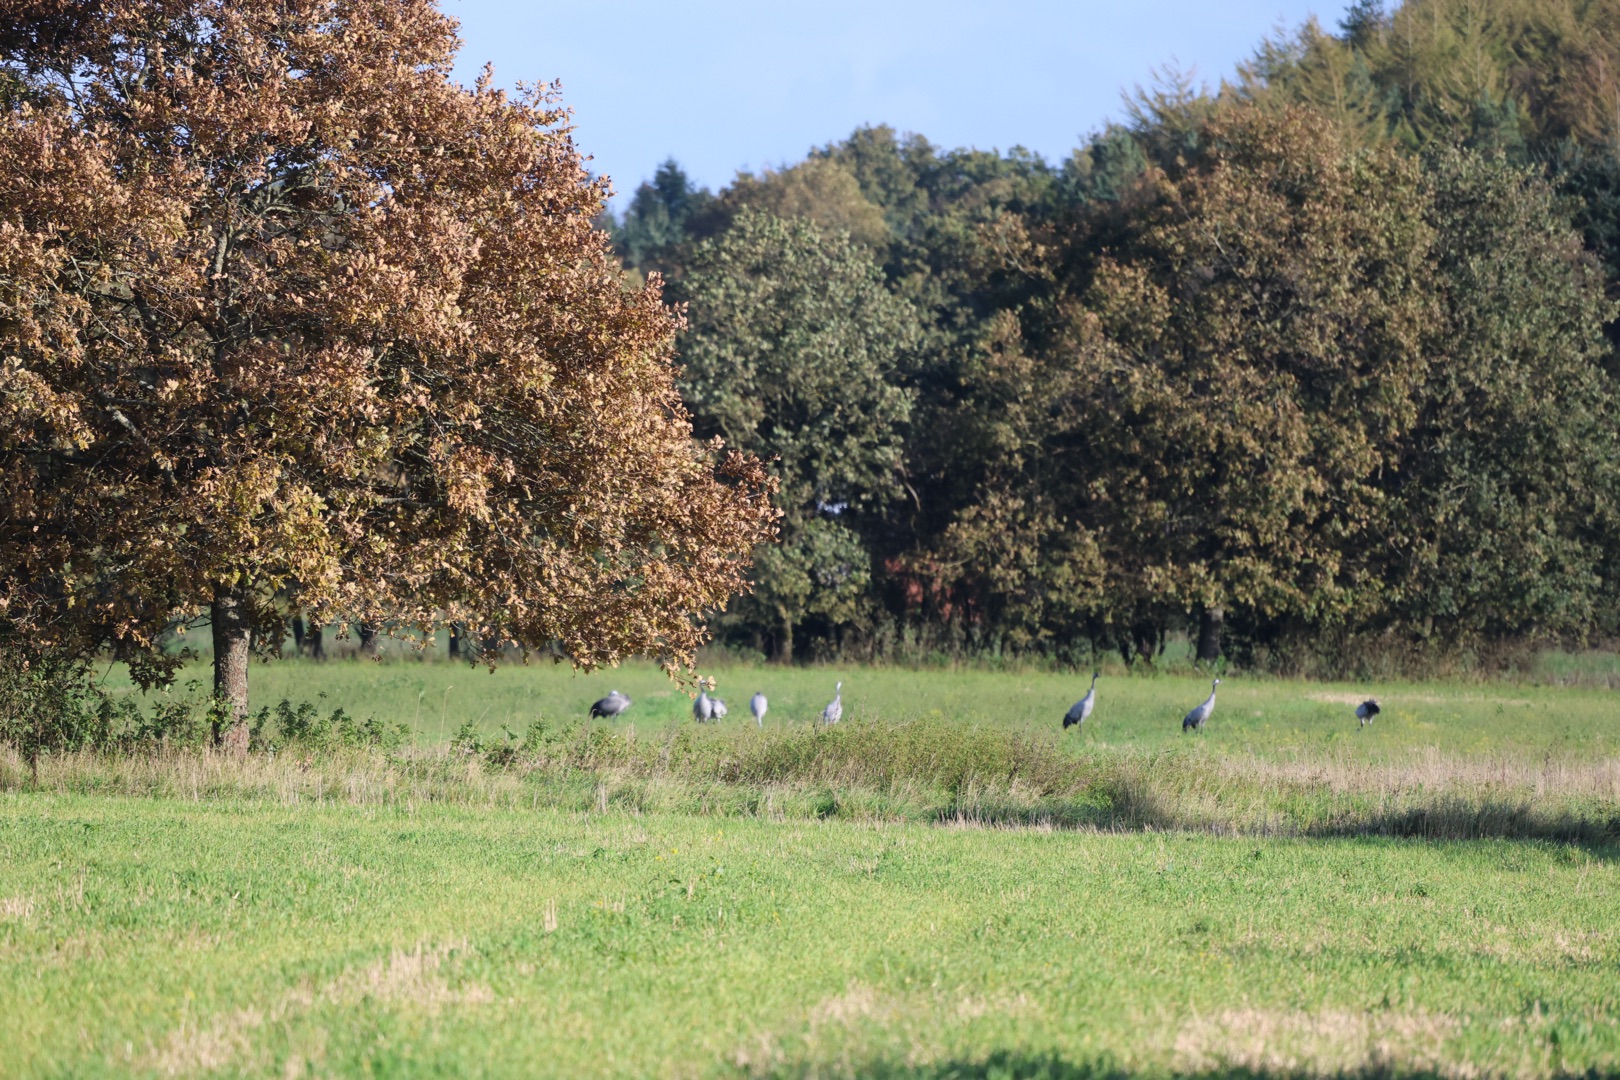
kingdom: Animalia
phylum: Chordata
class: Aves
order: Gruiformes
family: Gruidae
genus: Grus
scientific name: Grus grus
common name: Trane
